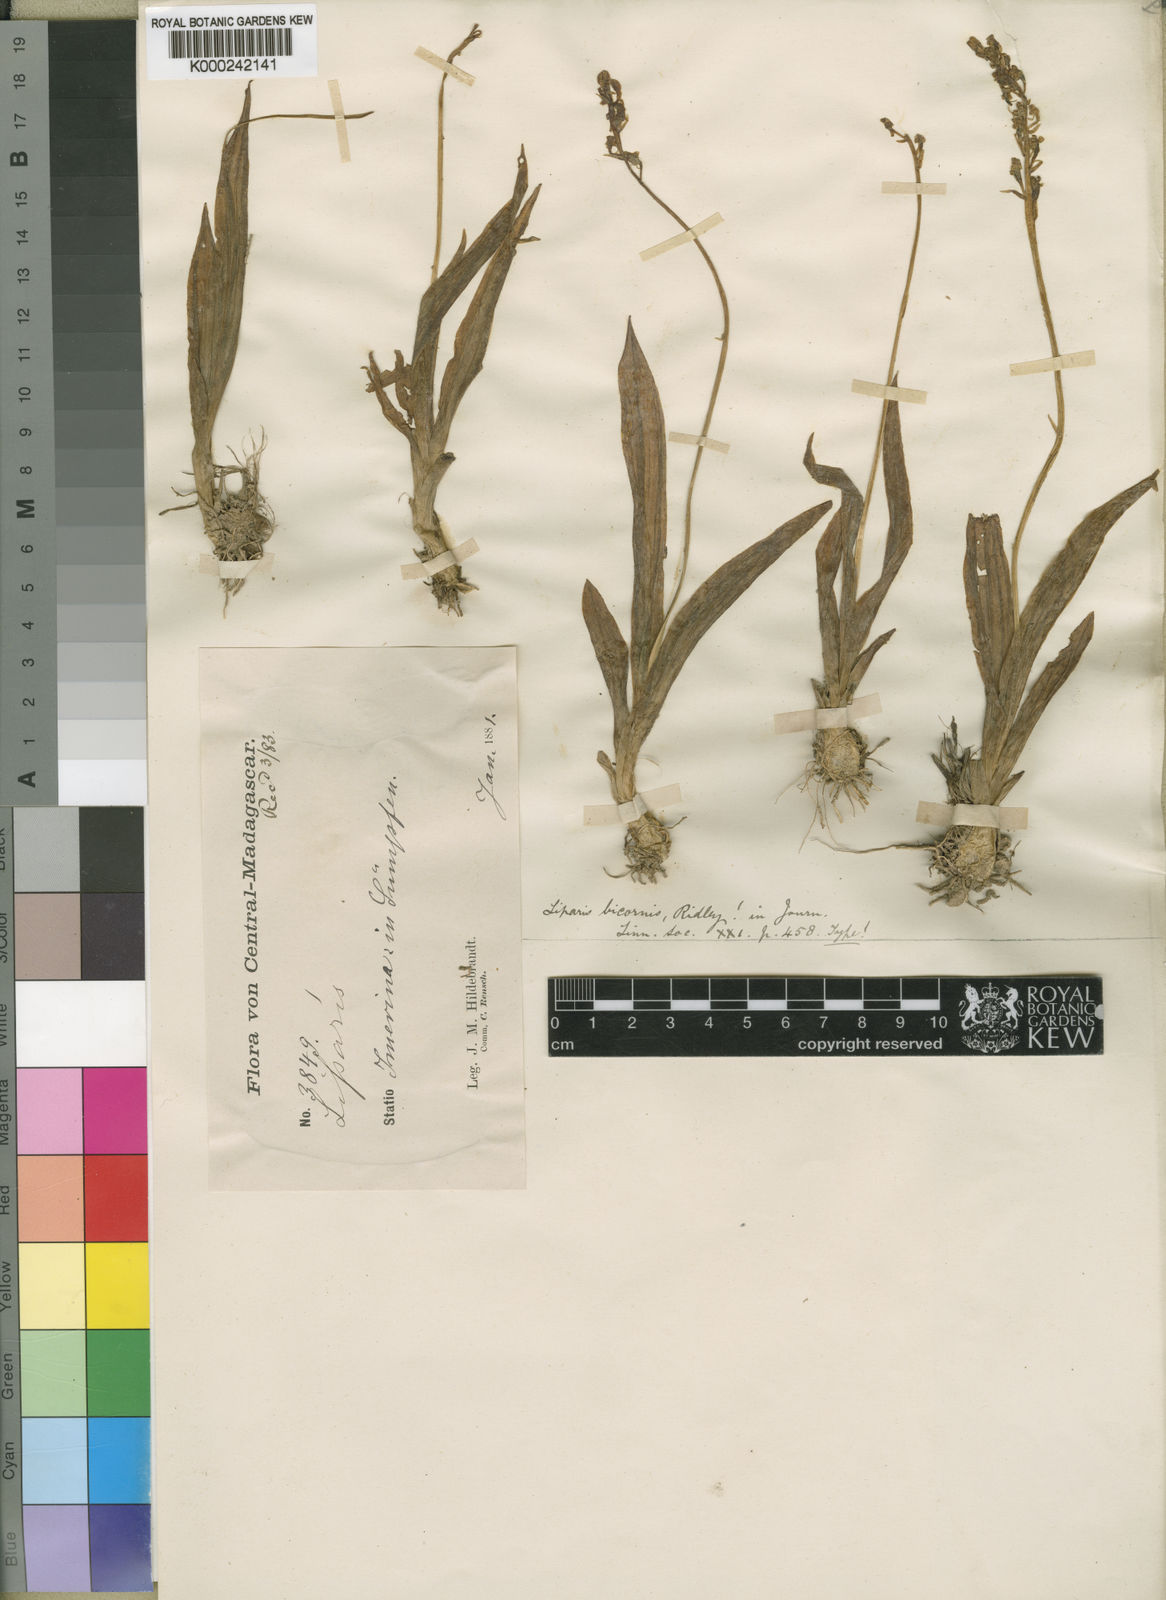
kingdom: Plantae
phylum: Tracheophyta
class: Liliopsida
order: Asparagales
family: Orchidaceae
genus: Liparis
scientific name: Liparis bicornis
